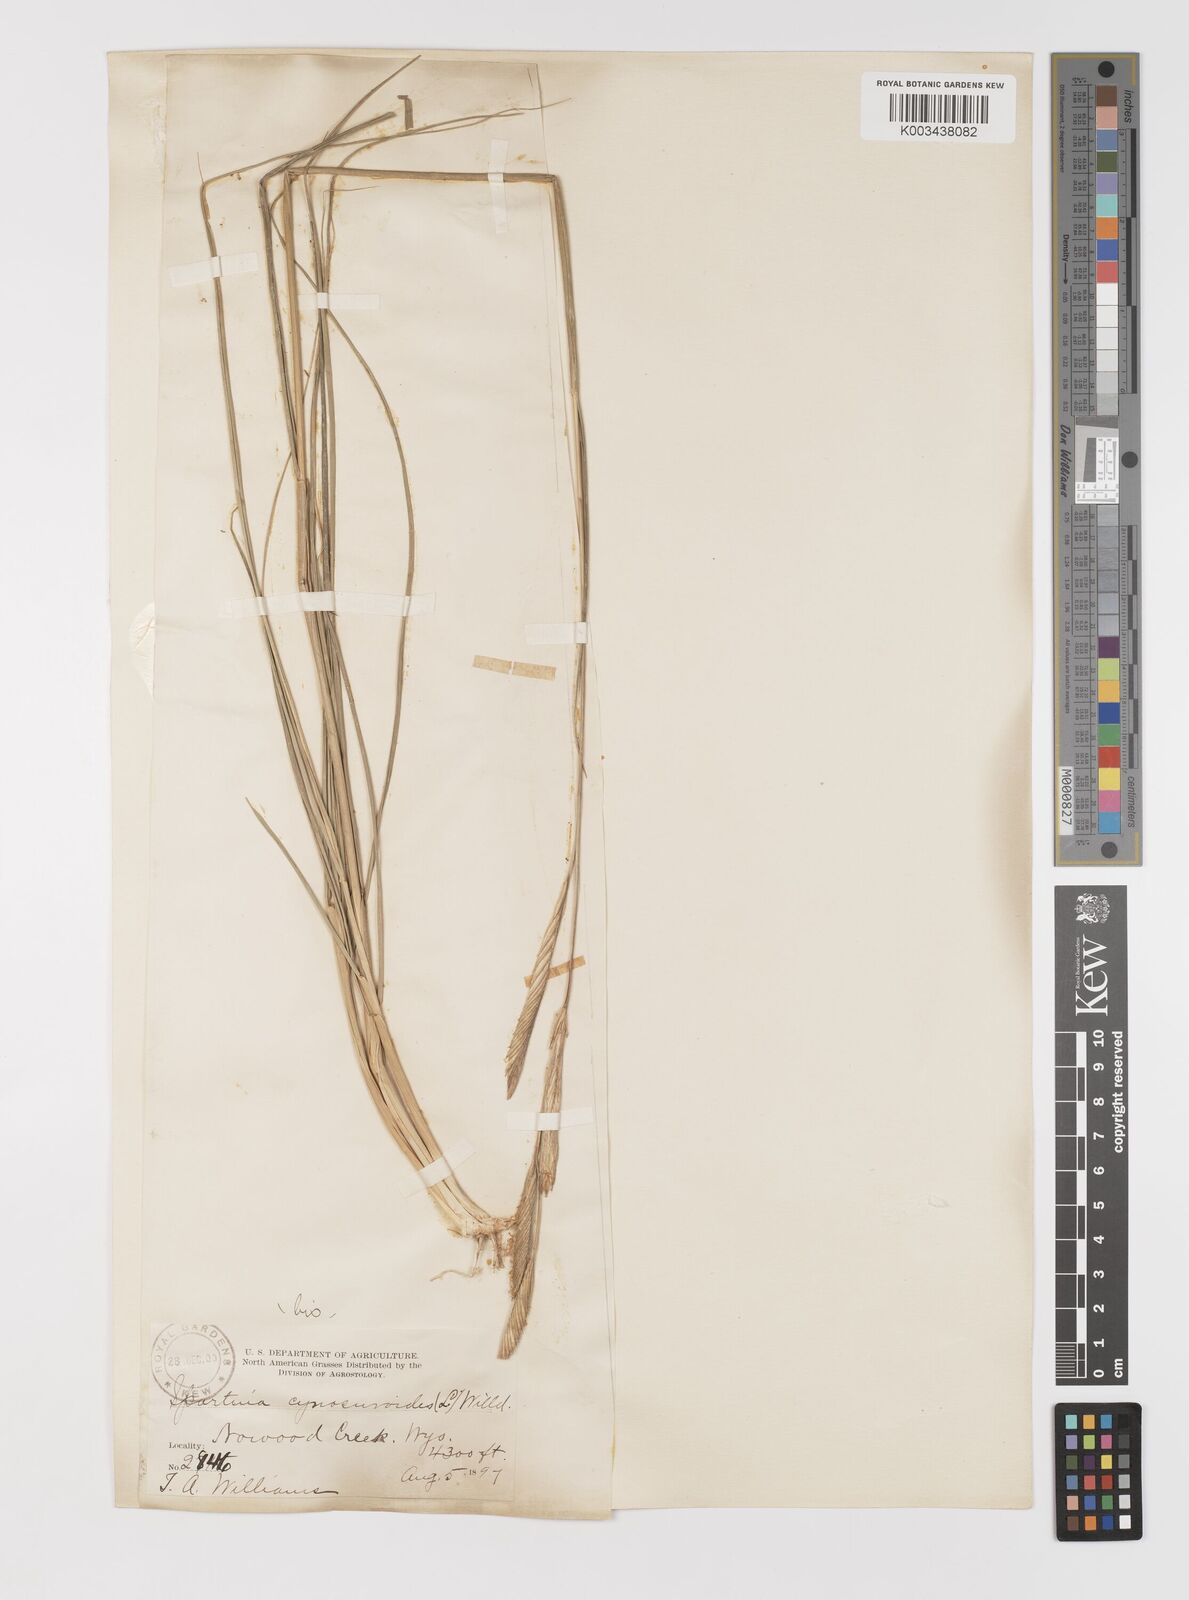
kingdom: Plantae
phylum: Tracheophyta
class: Liliopsida
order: Poales
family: Poaceae
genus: Sporobolus
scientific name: Sporobolus hookerianus
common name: Alkali cordgrass
